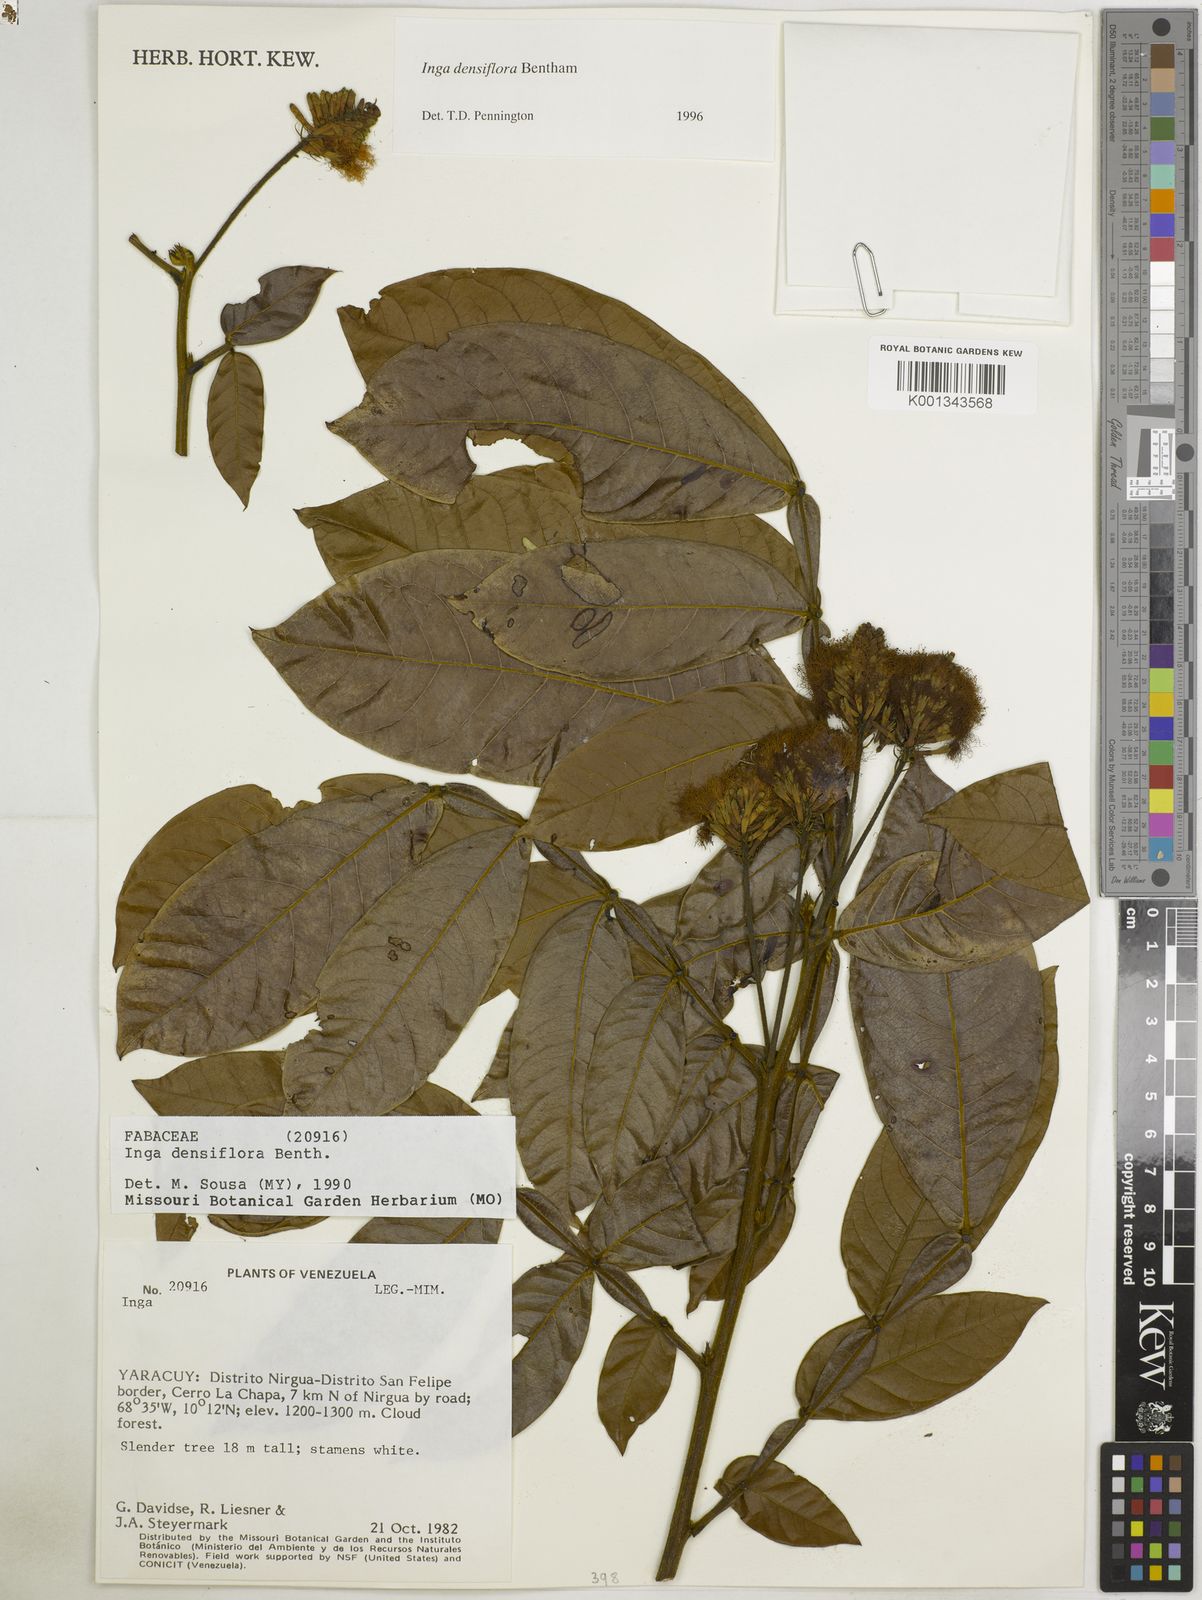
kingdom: Plantae
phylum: Tracheophyta
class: Magnoliopsida
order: Fabales
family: Fabaceae
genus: Inga
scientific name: Inga densiflora
